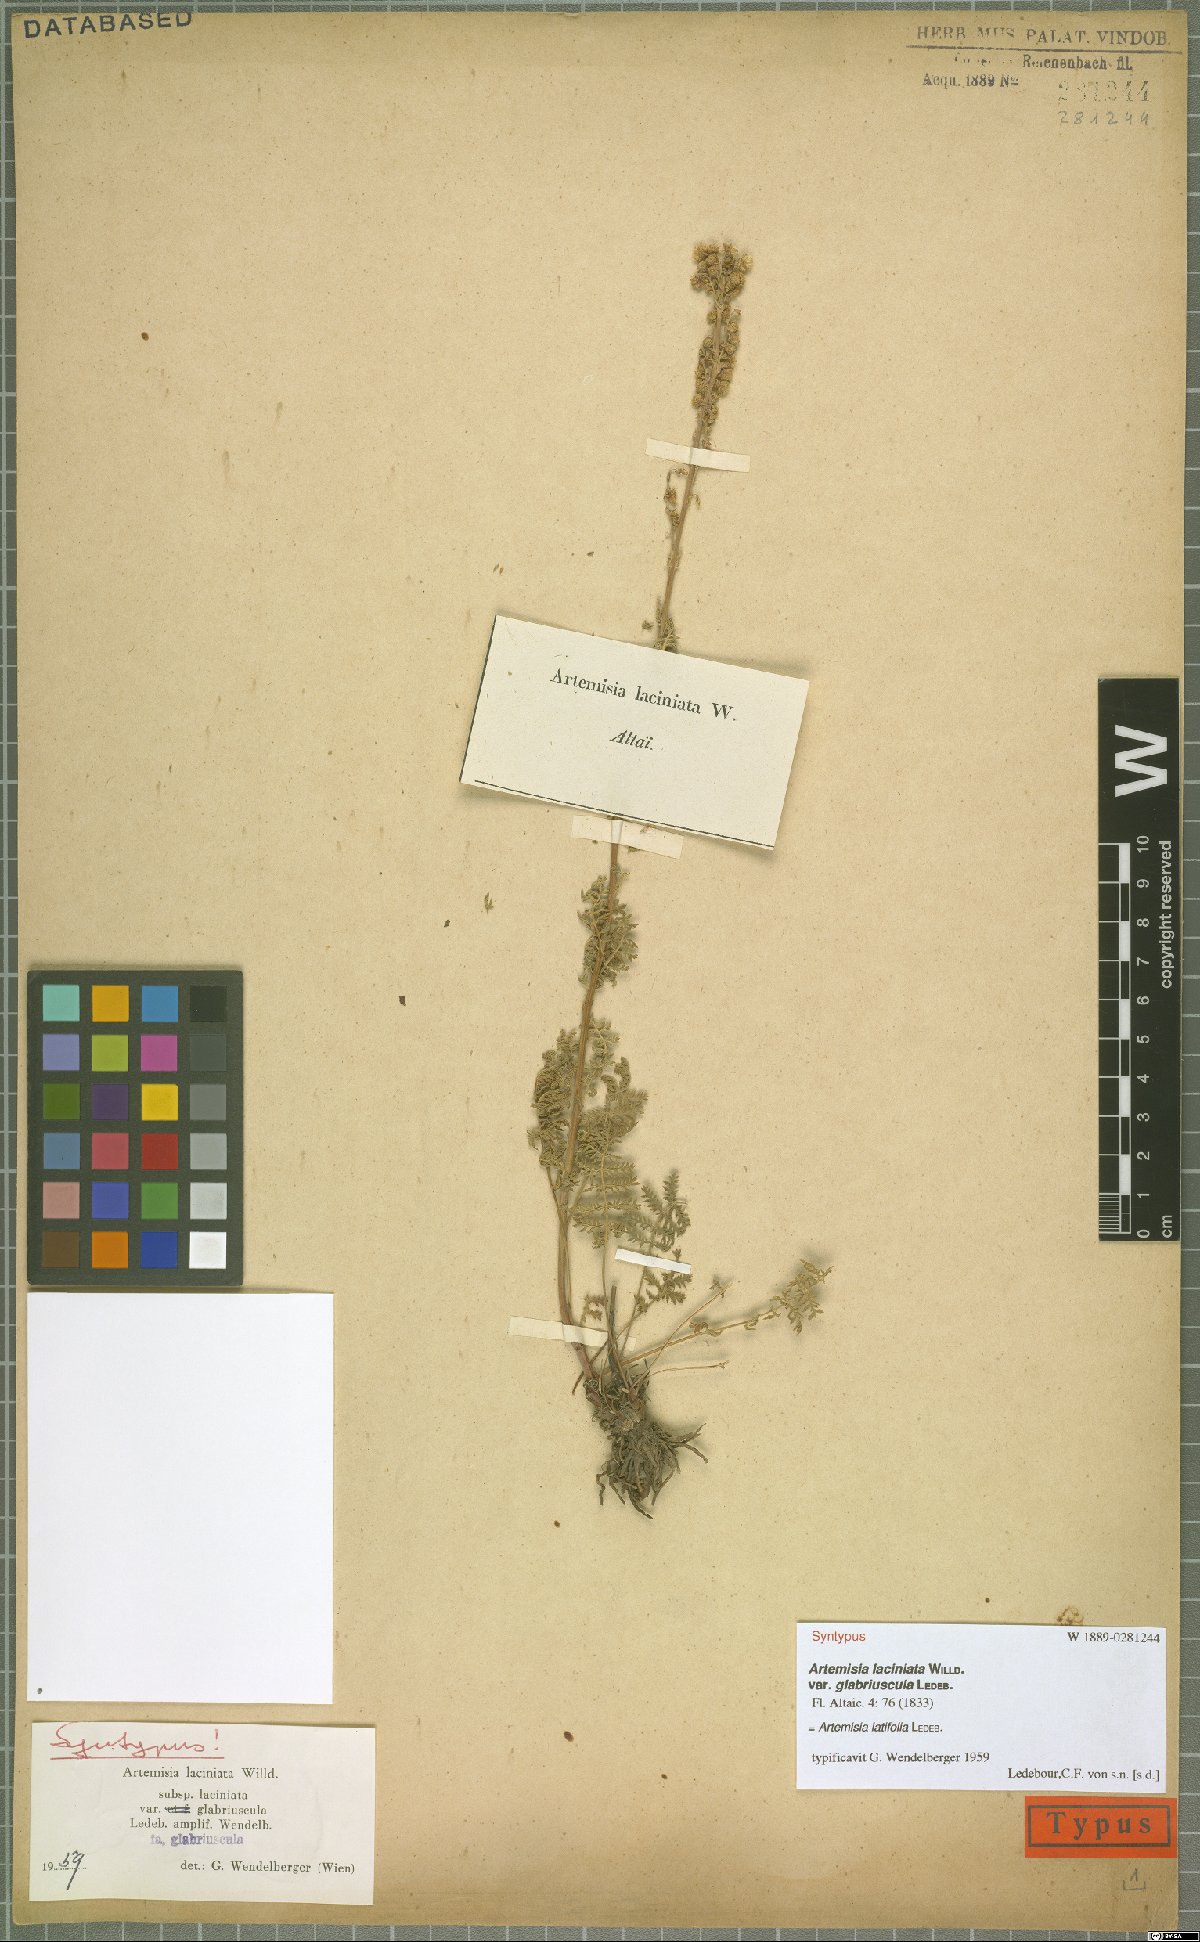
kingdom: Plantae
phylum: Tracheophyta
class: Magnoliopsida
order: Asterales
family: Asteraceae
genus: Artemisia
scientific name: Artemisia latifolia
